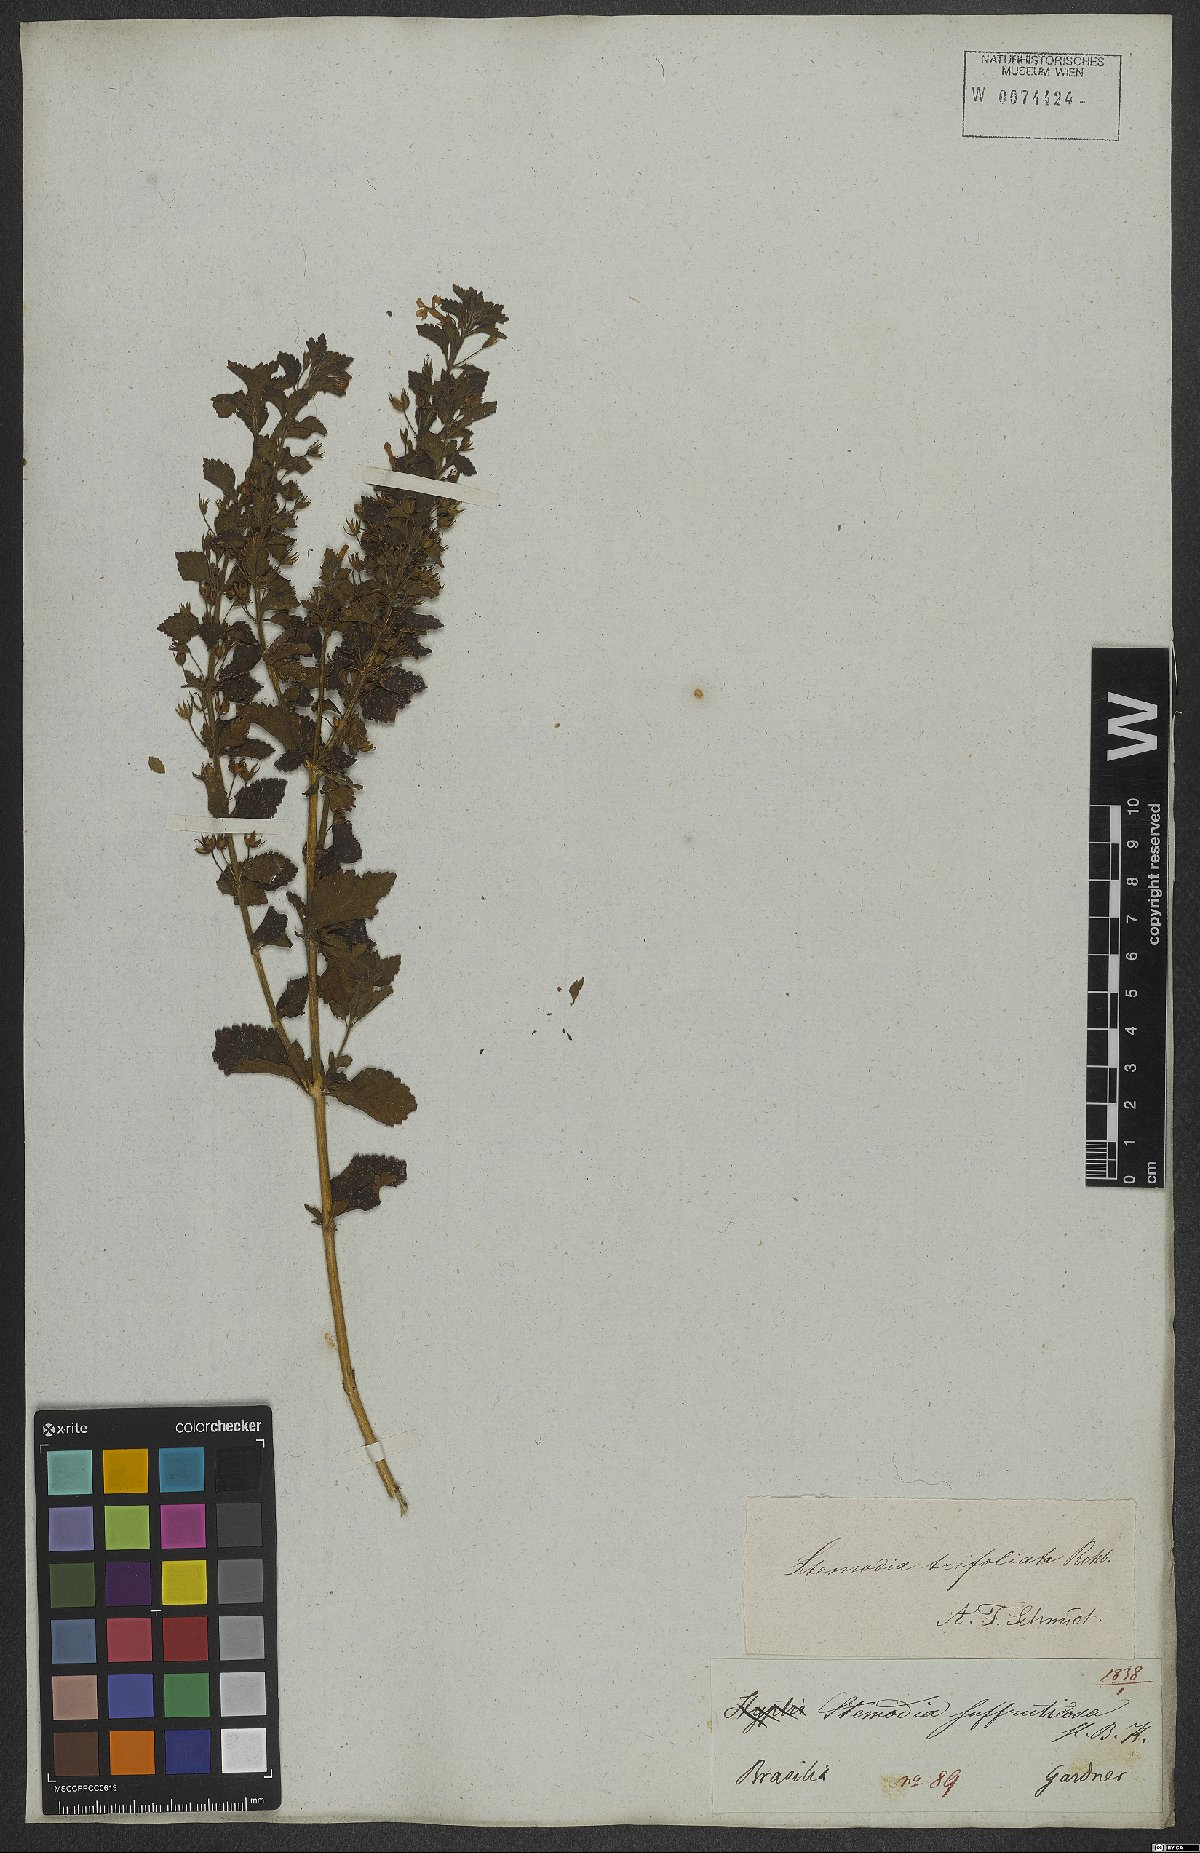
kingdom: Plantae
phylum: Tracheophyta
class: Magnoliopsida
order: Lamiales
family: Plantaginaceae
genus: Stemodia
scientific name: Stemodia trifoliata
